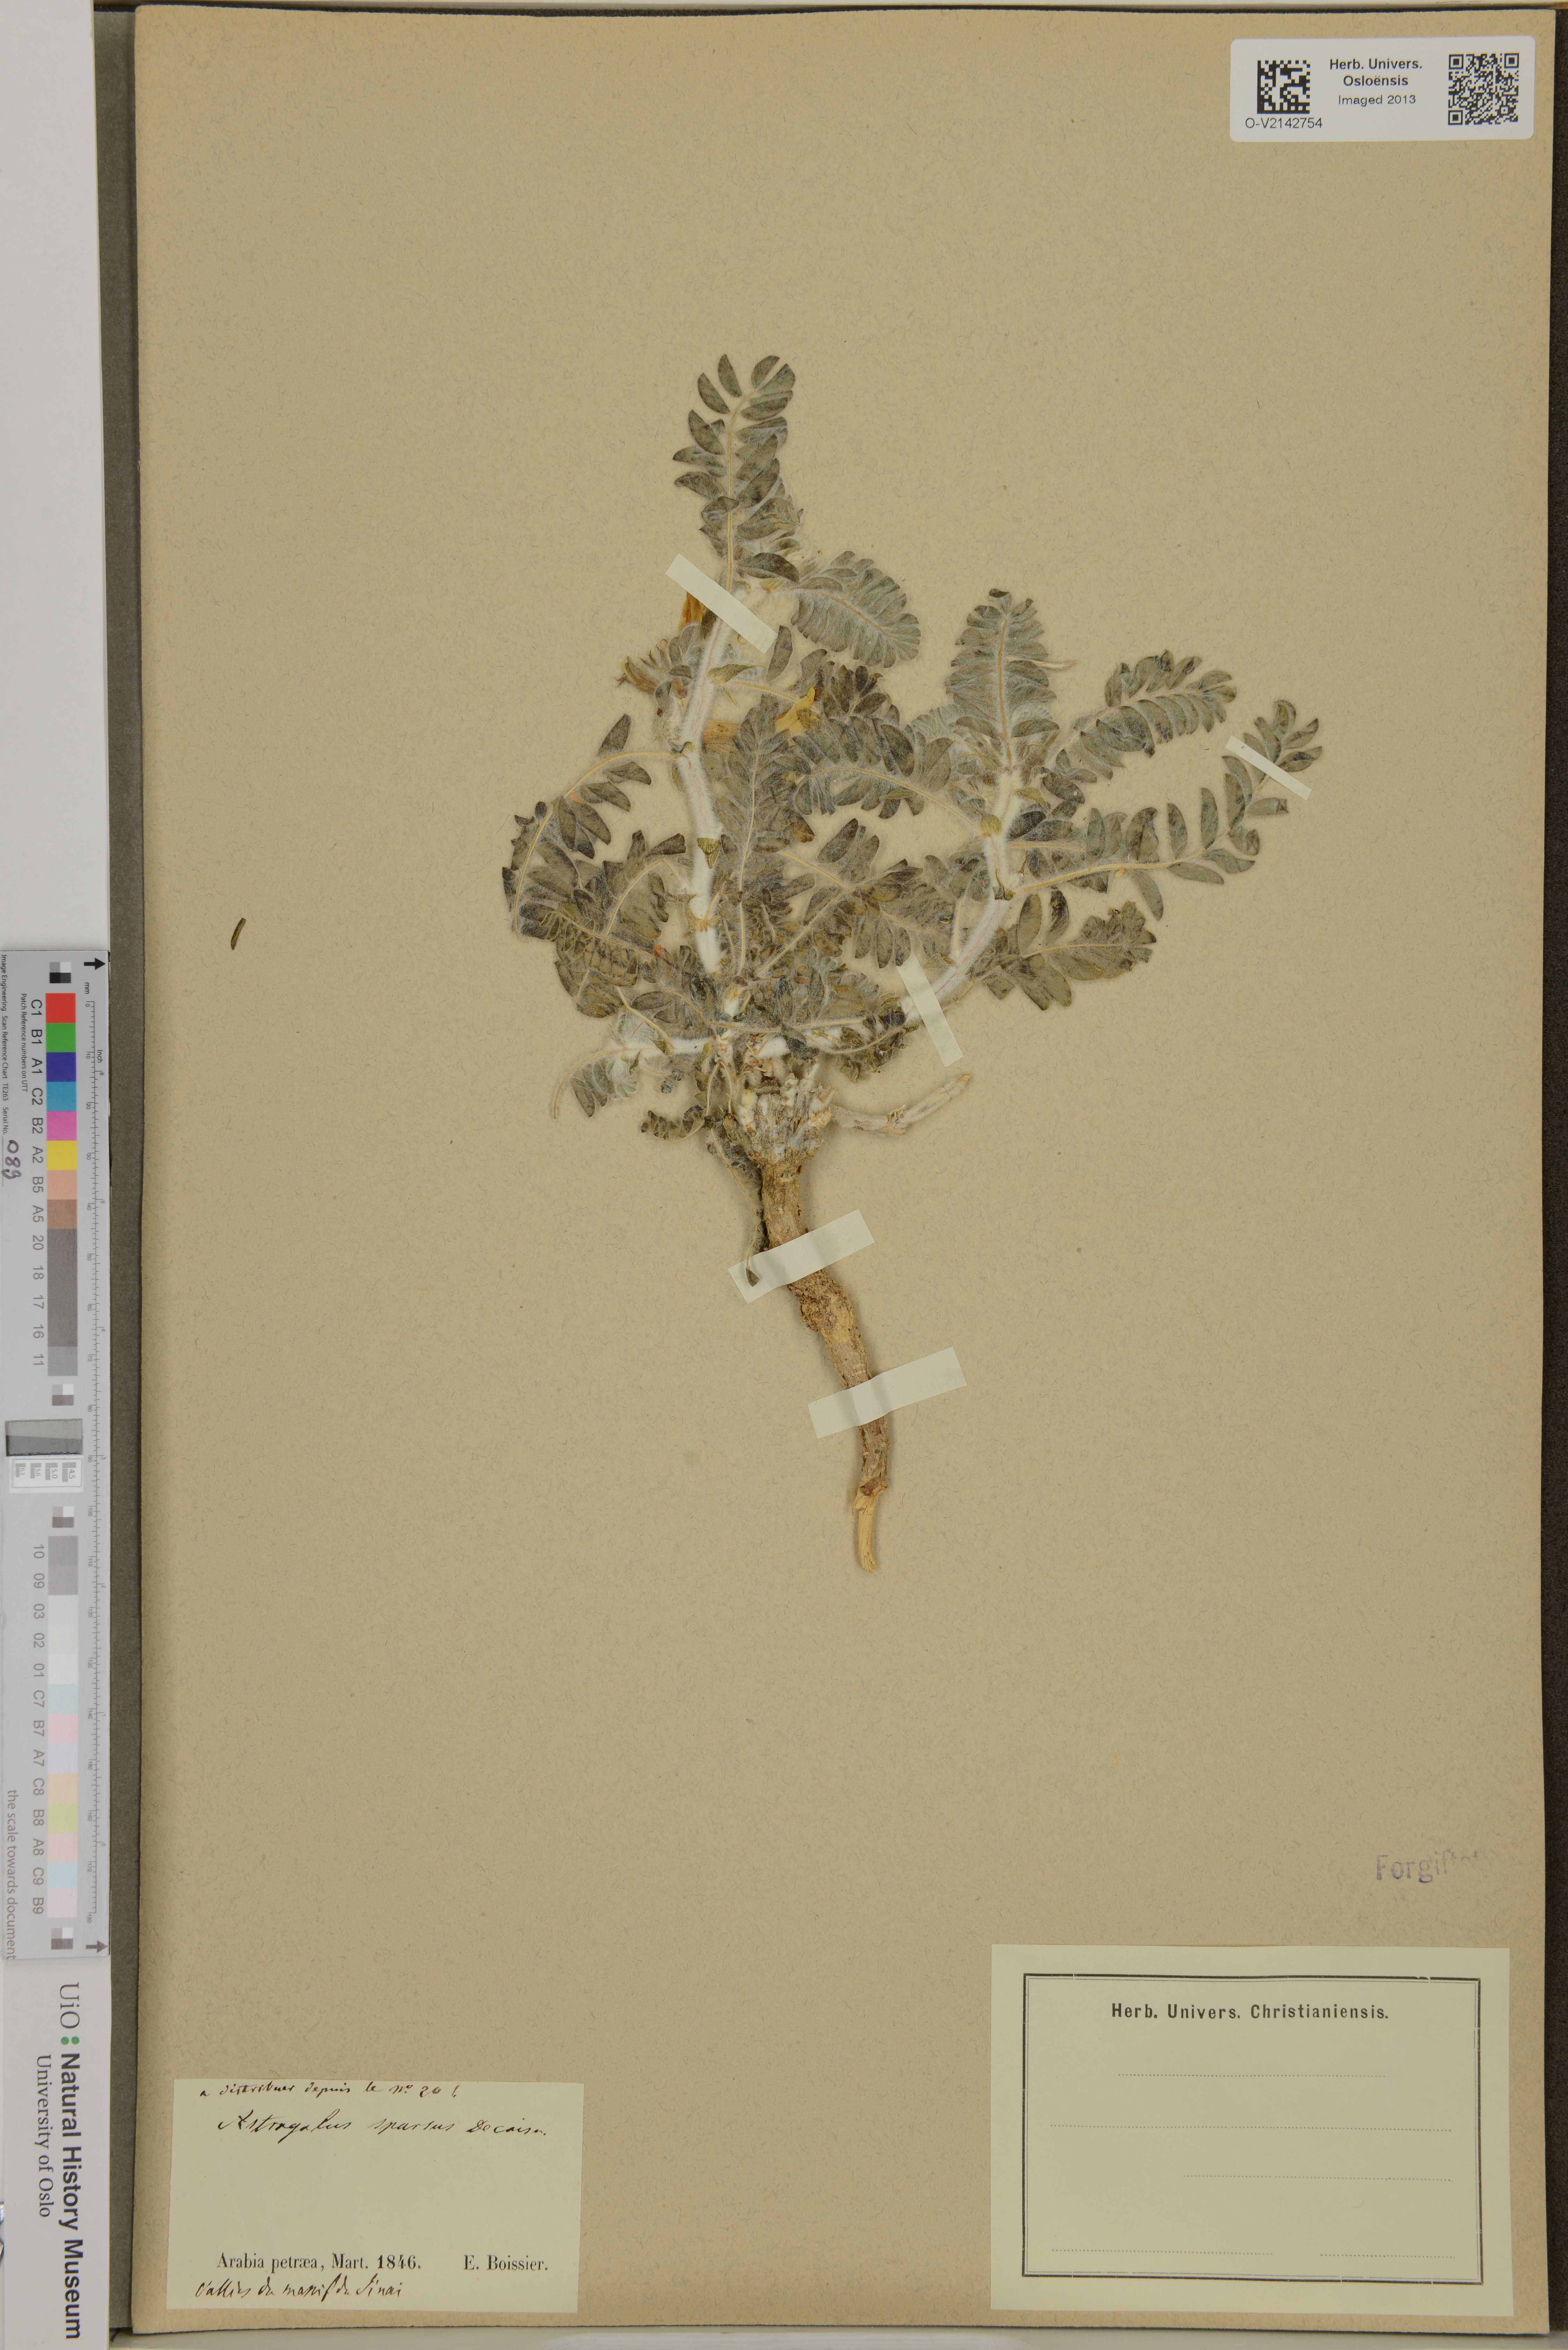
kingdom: Plantae
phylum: Tracheophyta
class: Magnoliopsida
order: Fabales
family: Fabaceae
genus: Astragalus
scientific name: Astragalus sparsus
